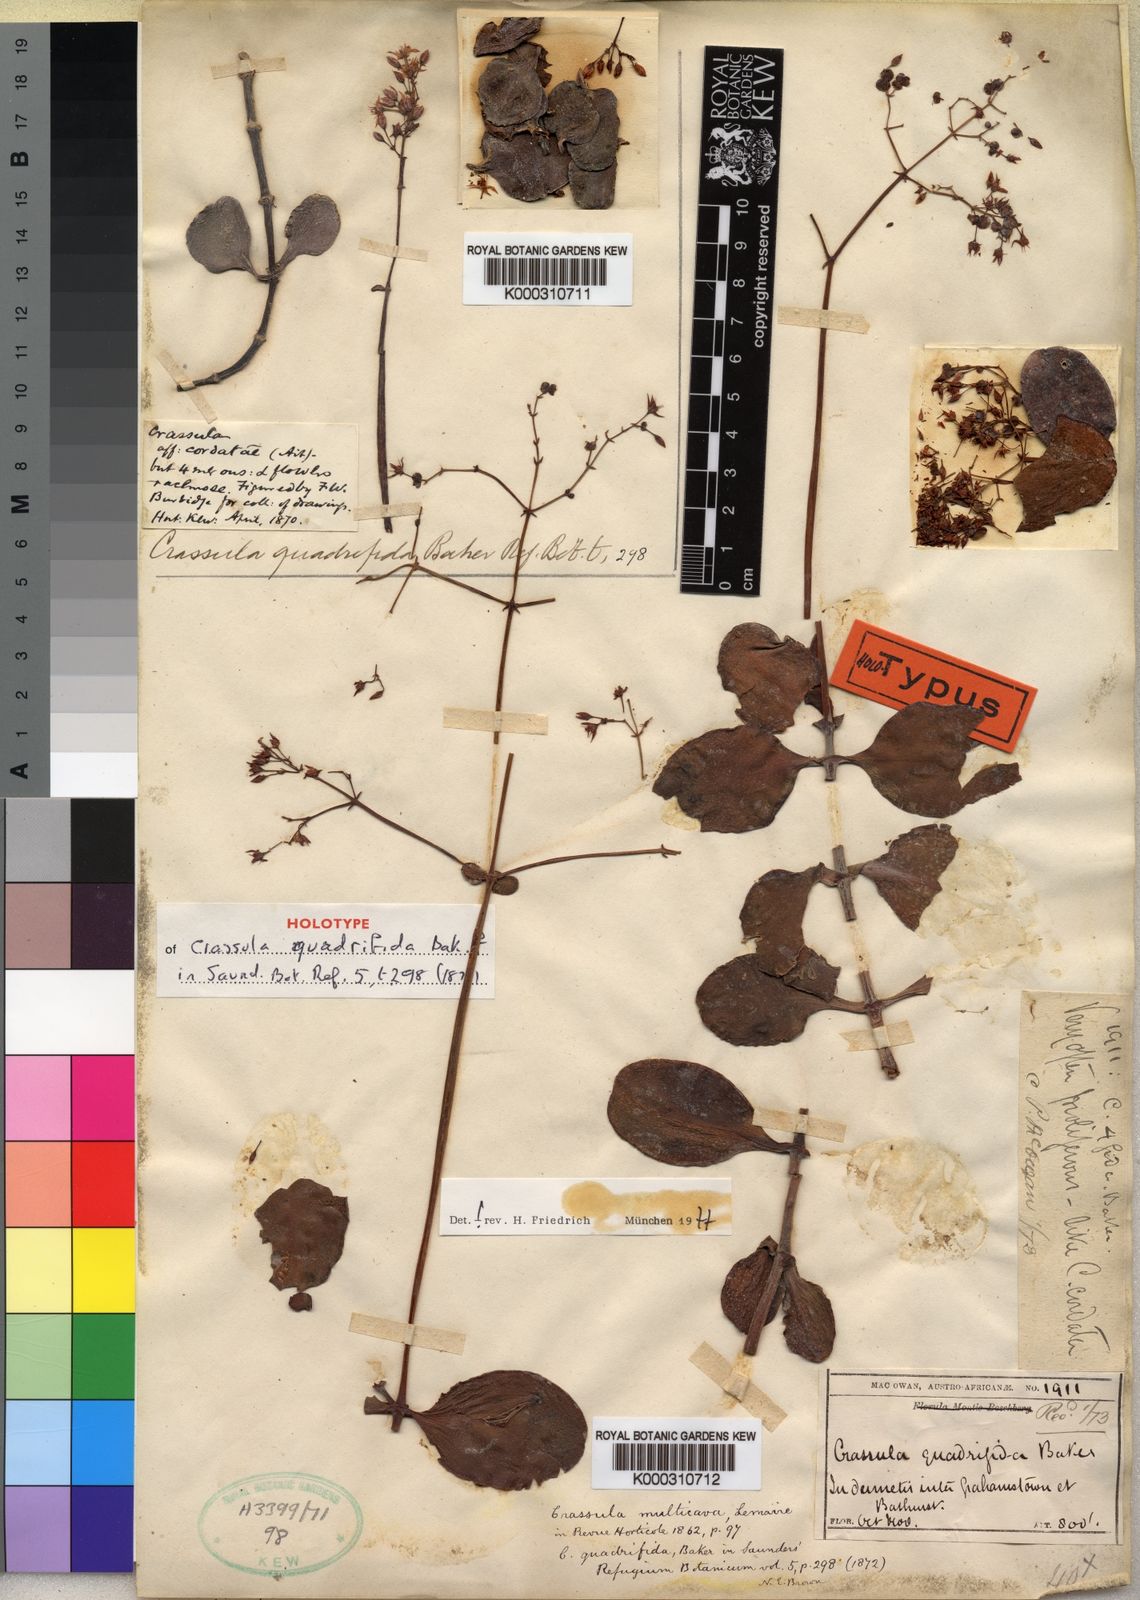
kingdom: Plantae
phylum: Tracheophyta
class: Magnoliopsida
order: Saxifragales
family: Crassulaceae
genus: Crassula
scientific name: Crassula multicava
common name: Cape province pygmyweed
